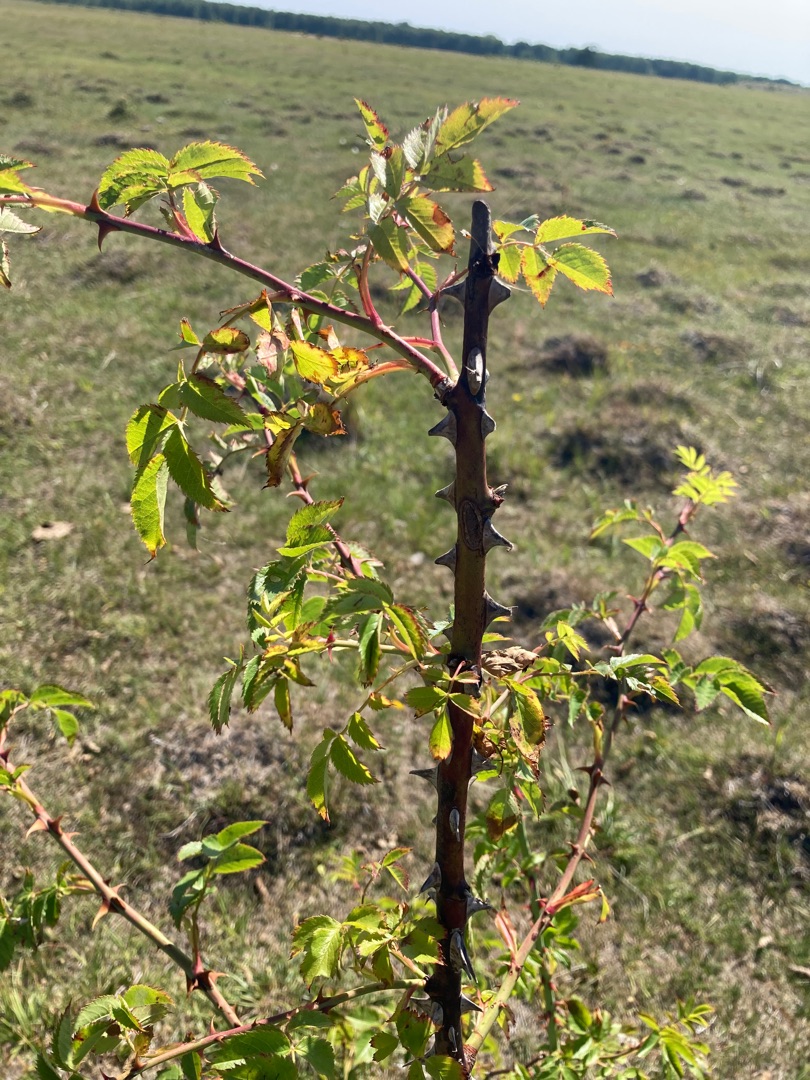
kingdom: Plantae
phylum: Tracheophyta
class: Magnoliopsida
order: Rosales
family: Rosaceae
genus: Rosa
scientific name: Rosa canina
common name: Glat hunde-rose
